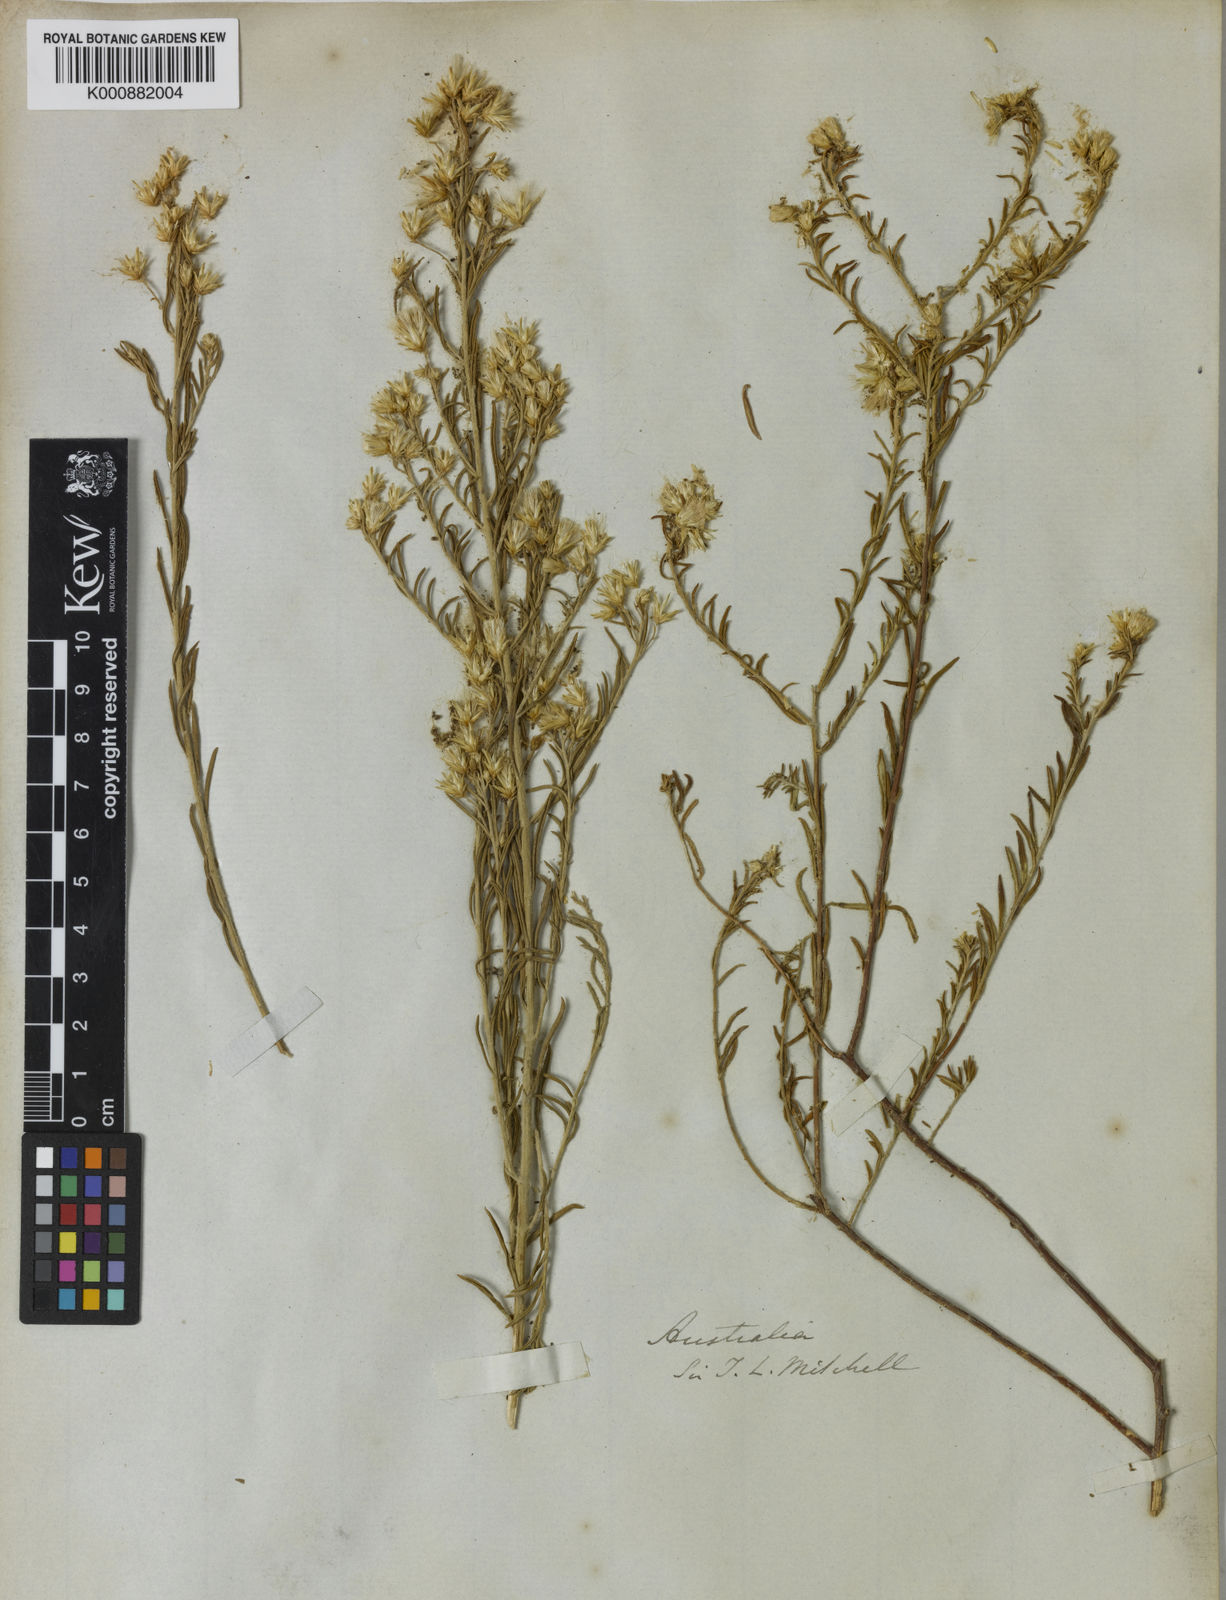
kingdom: Plantae
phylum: Tracheophyta
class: Magnoliopsida
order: Asterales
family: Asteraceae
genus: Olearia
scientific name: Olearia subspicata
